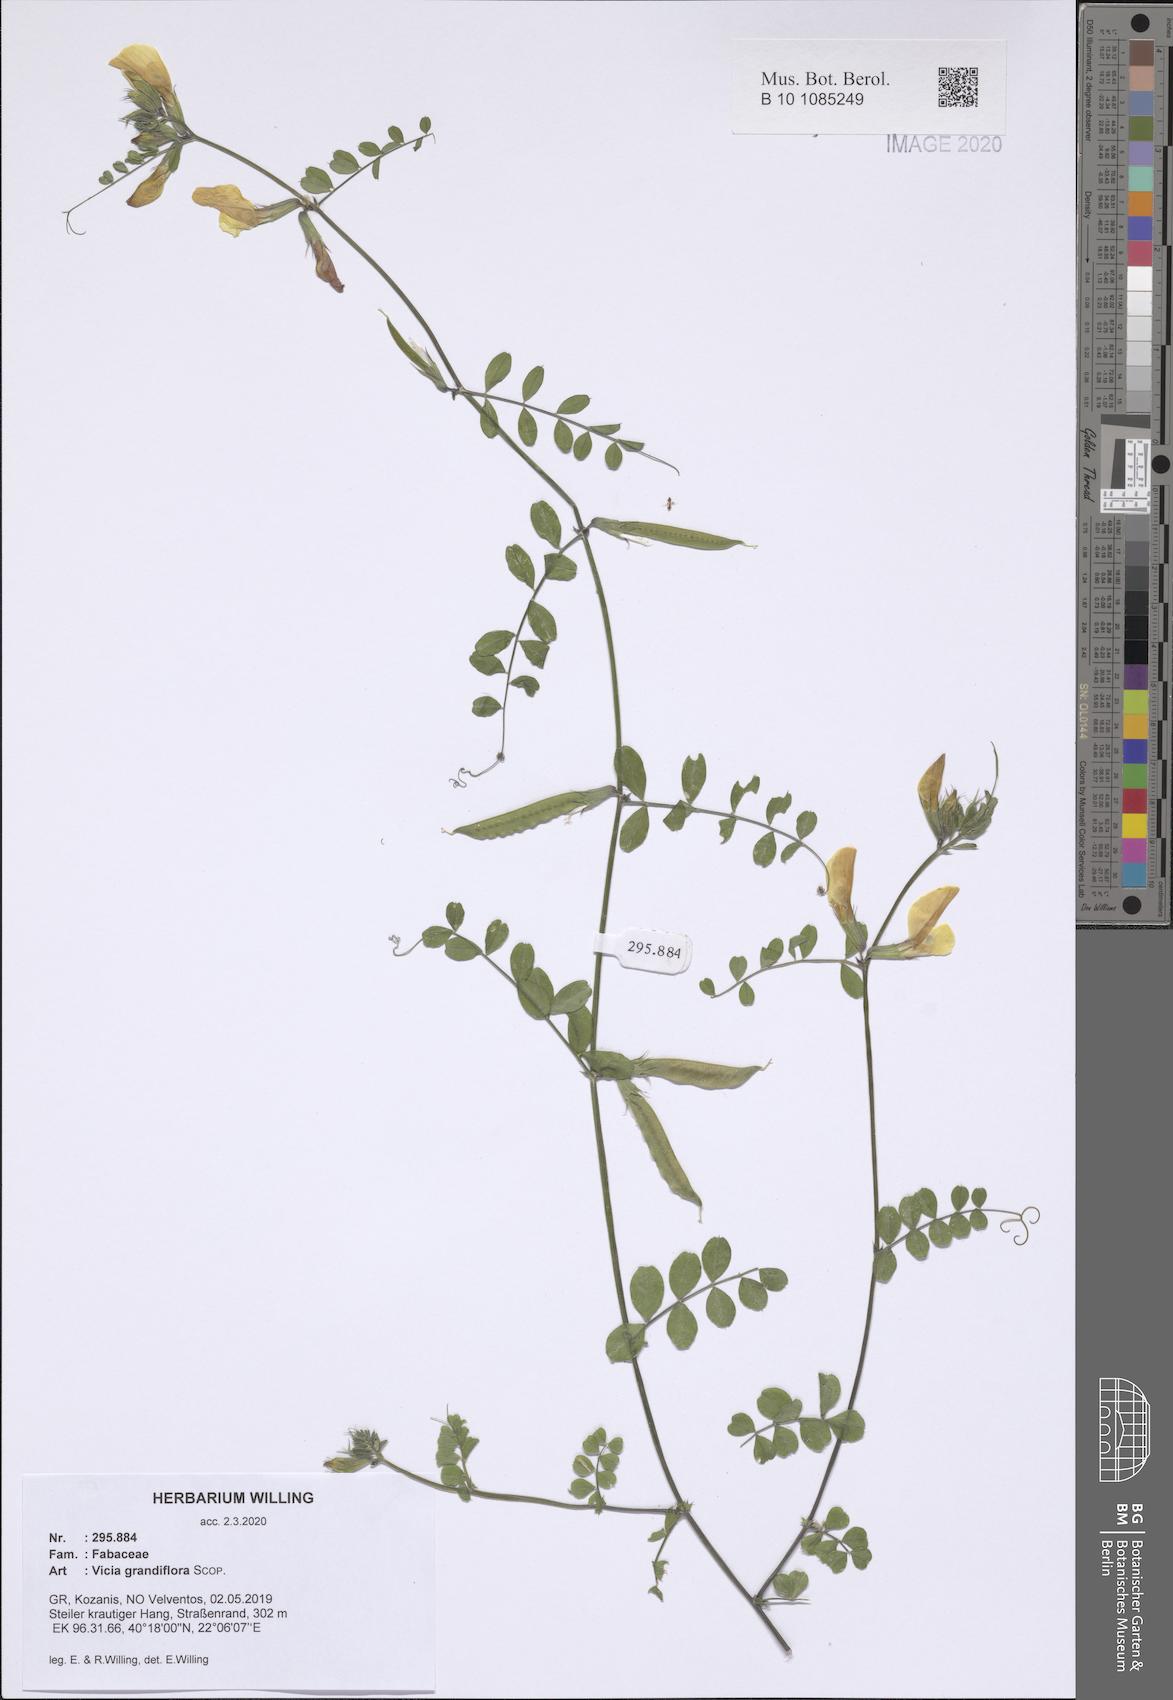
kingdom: Plantae
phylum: Tracheophyta
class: Magnoliopsida
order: Fabales
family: Fabaceae
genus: Vicia
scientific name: Vicia grandiflora
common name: Large yellow vetch
